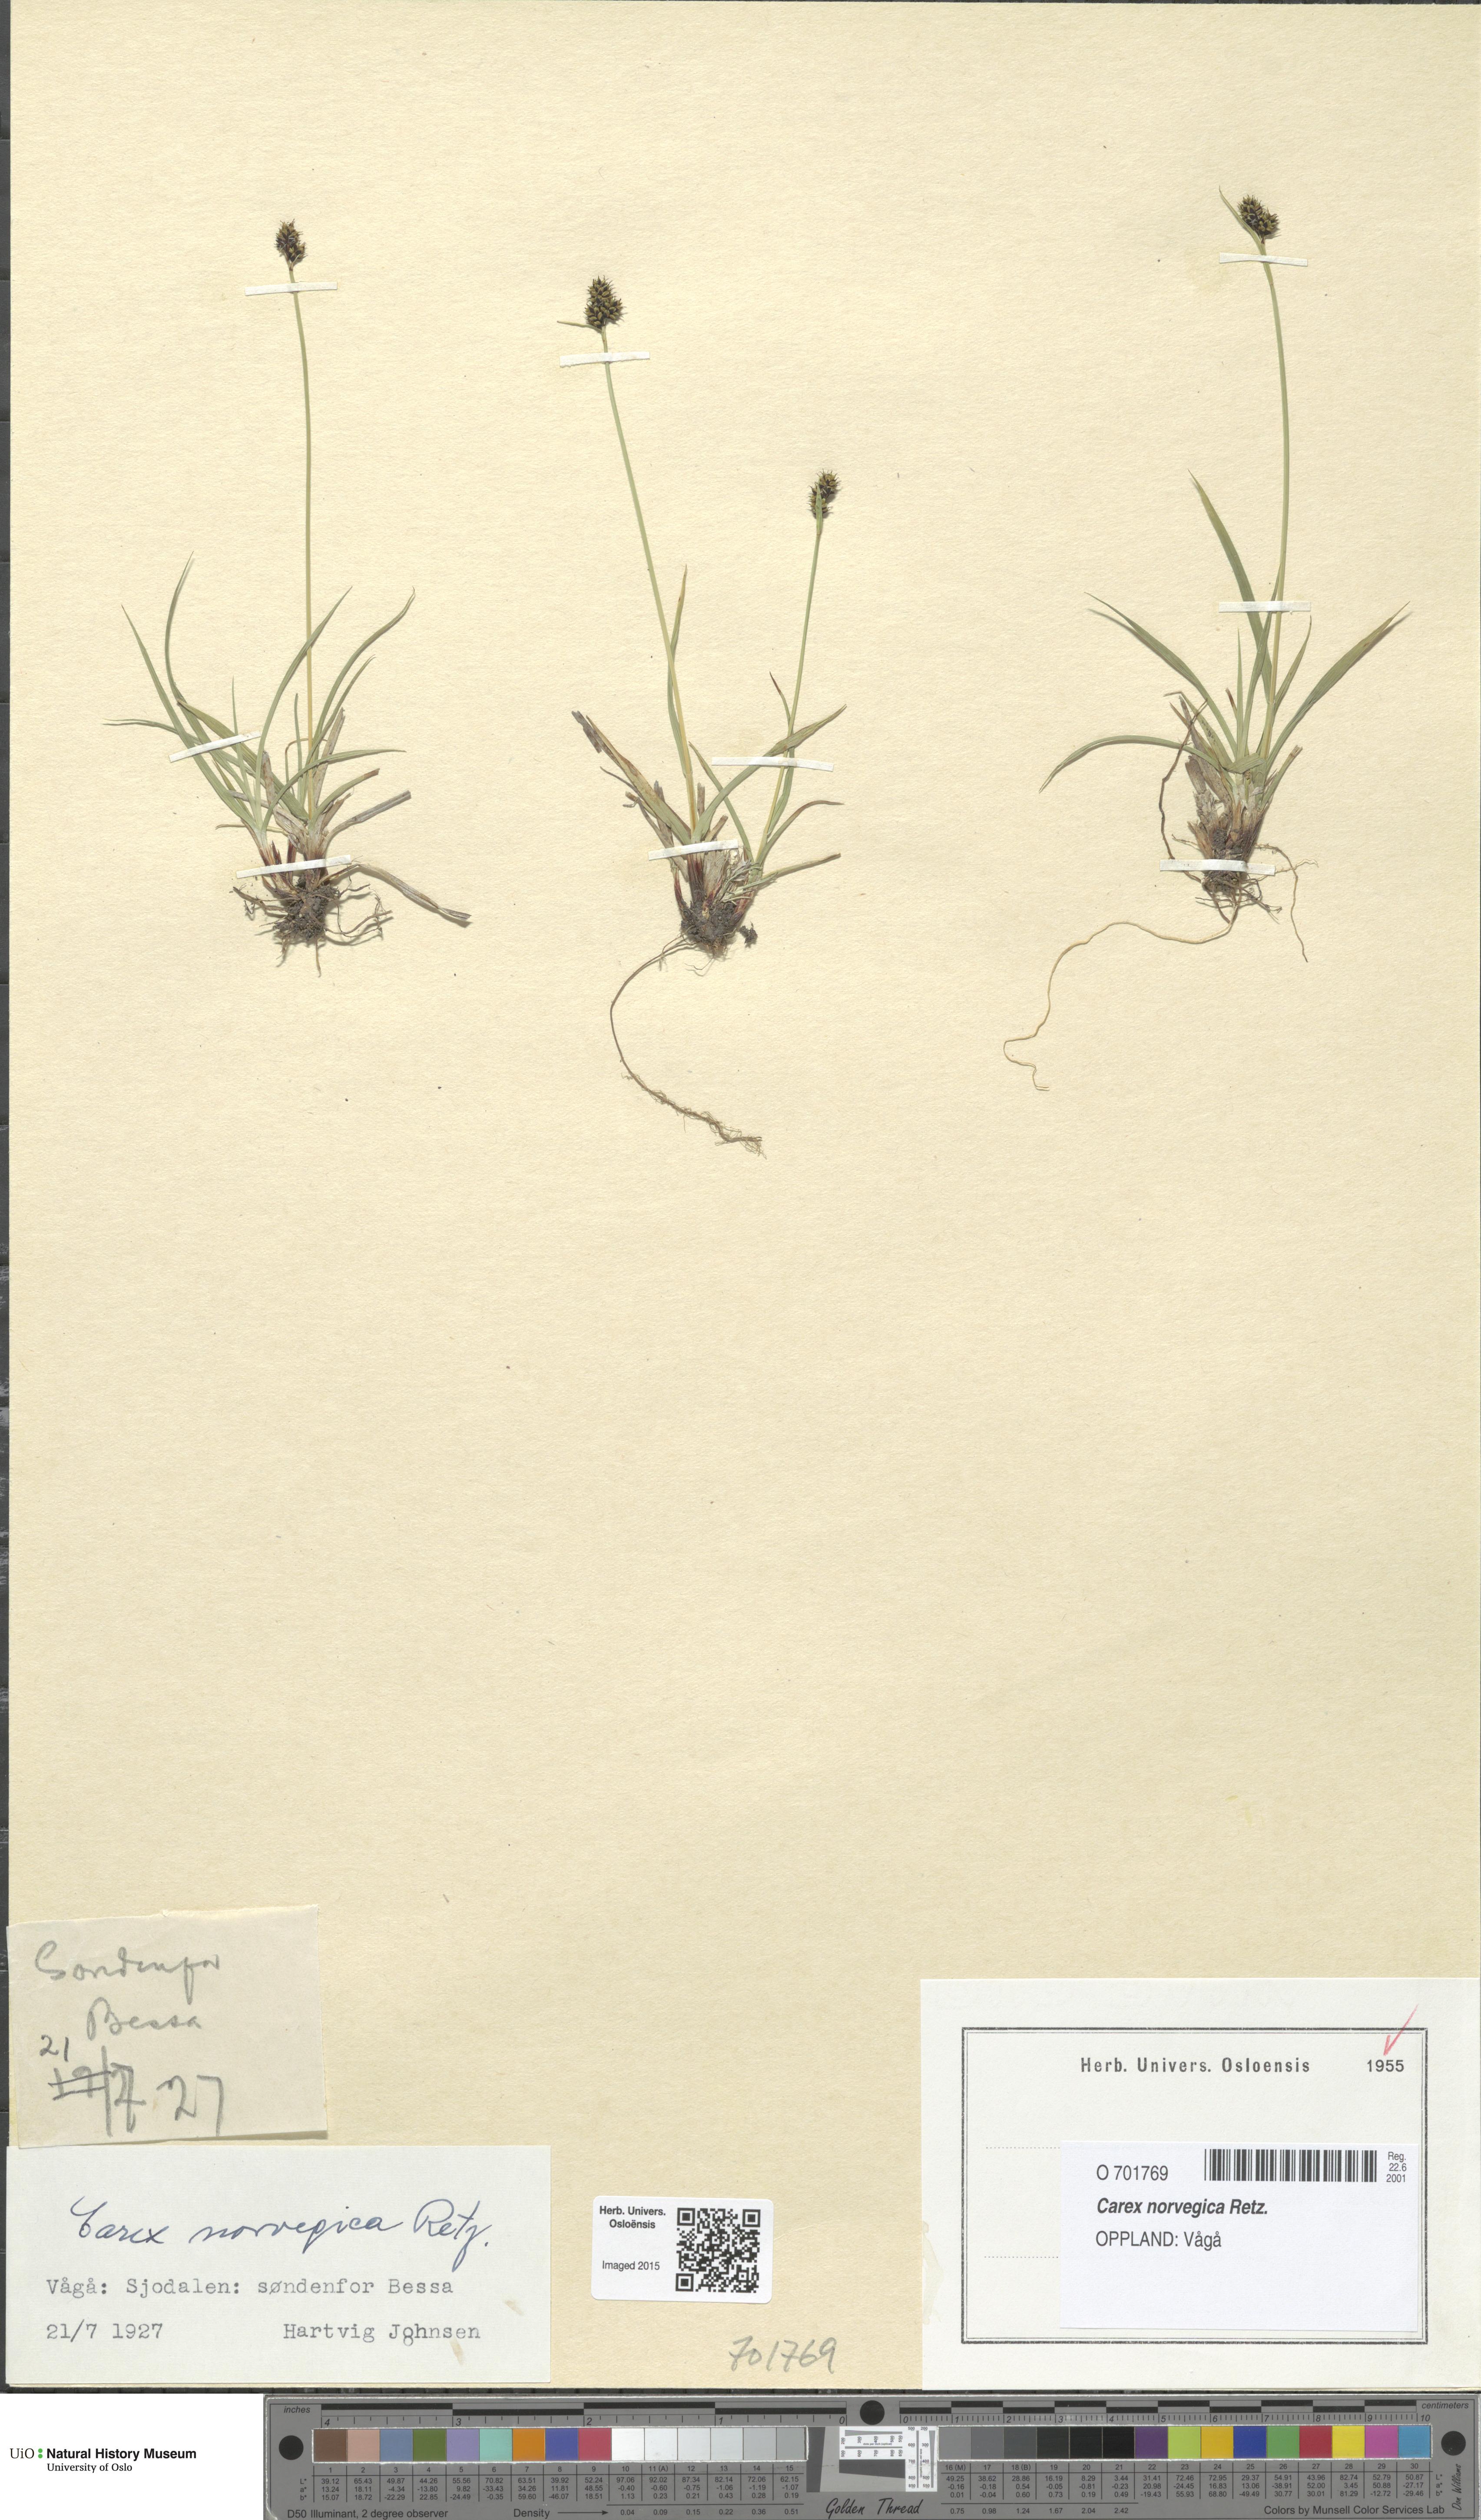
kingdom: Plantae
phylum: Tracheophyta
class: Liliopsida
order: Poales
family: Cyperaceae
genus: Carex
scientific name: Carex norvegica
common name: Close-headed alpine-sedge
